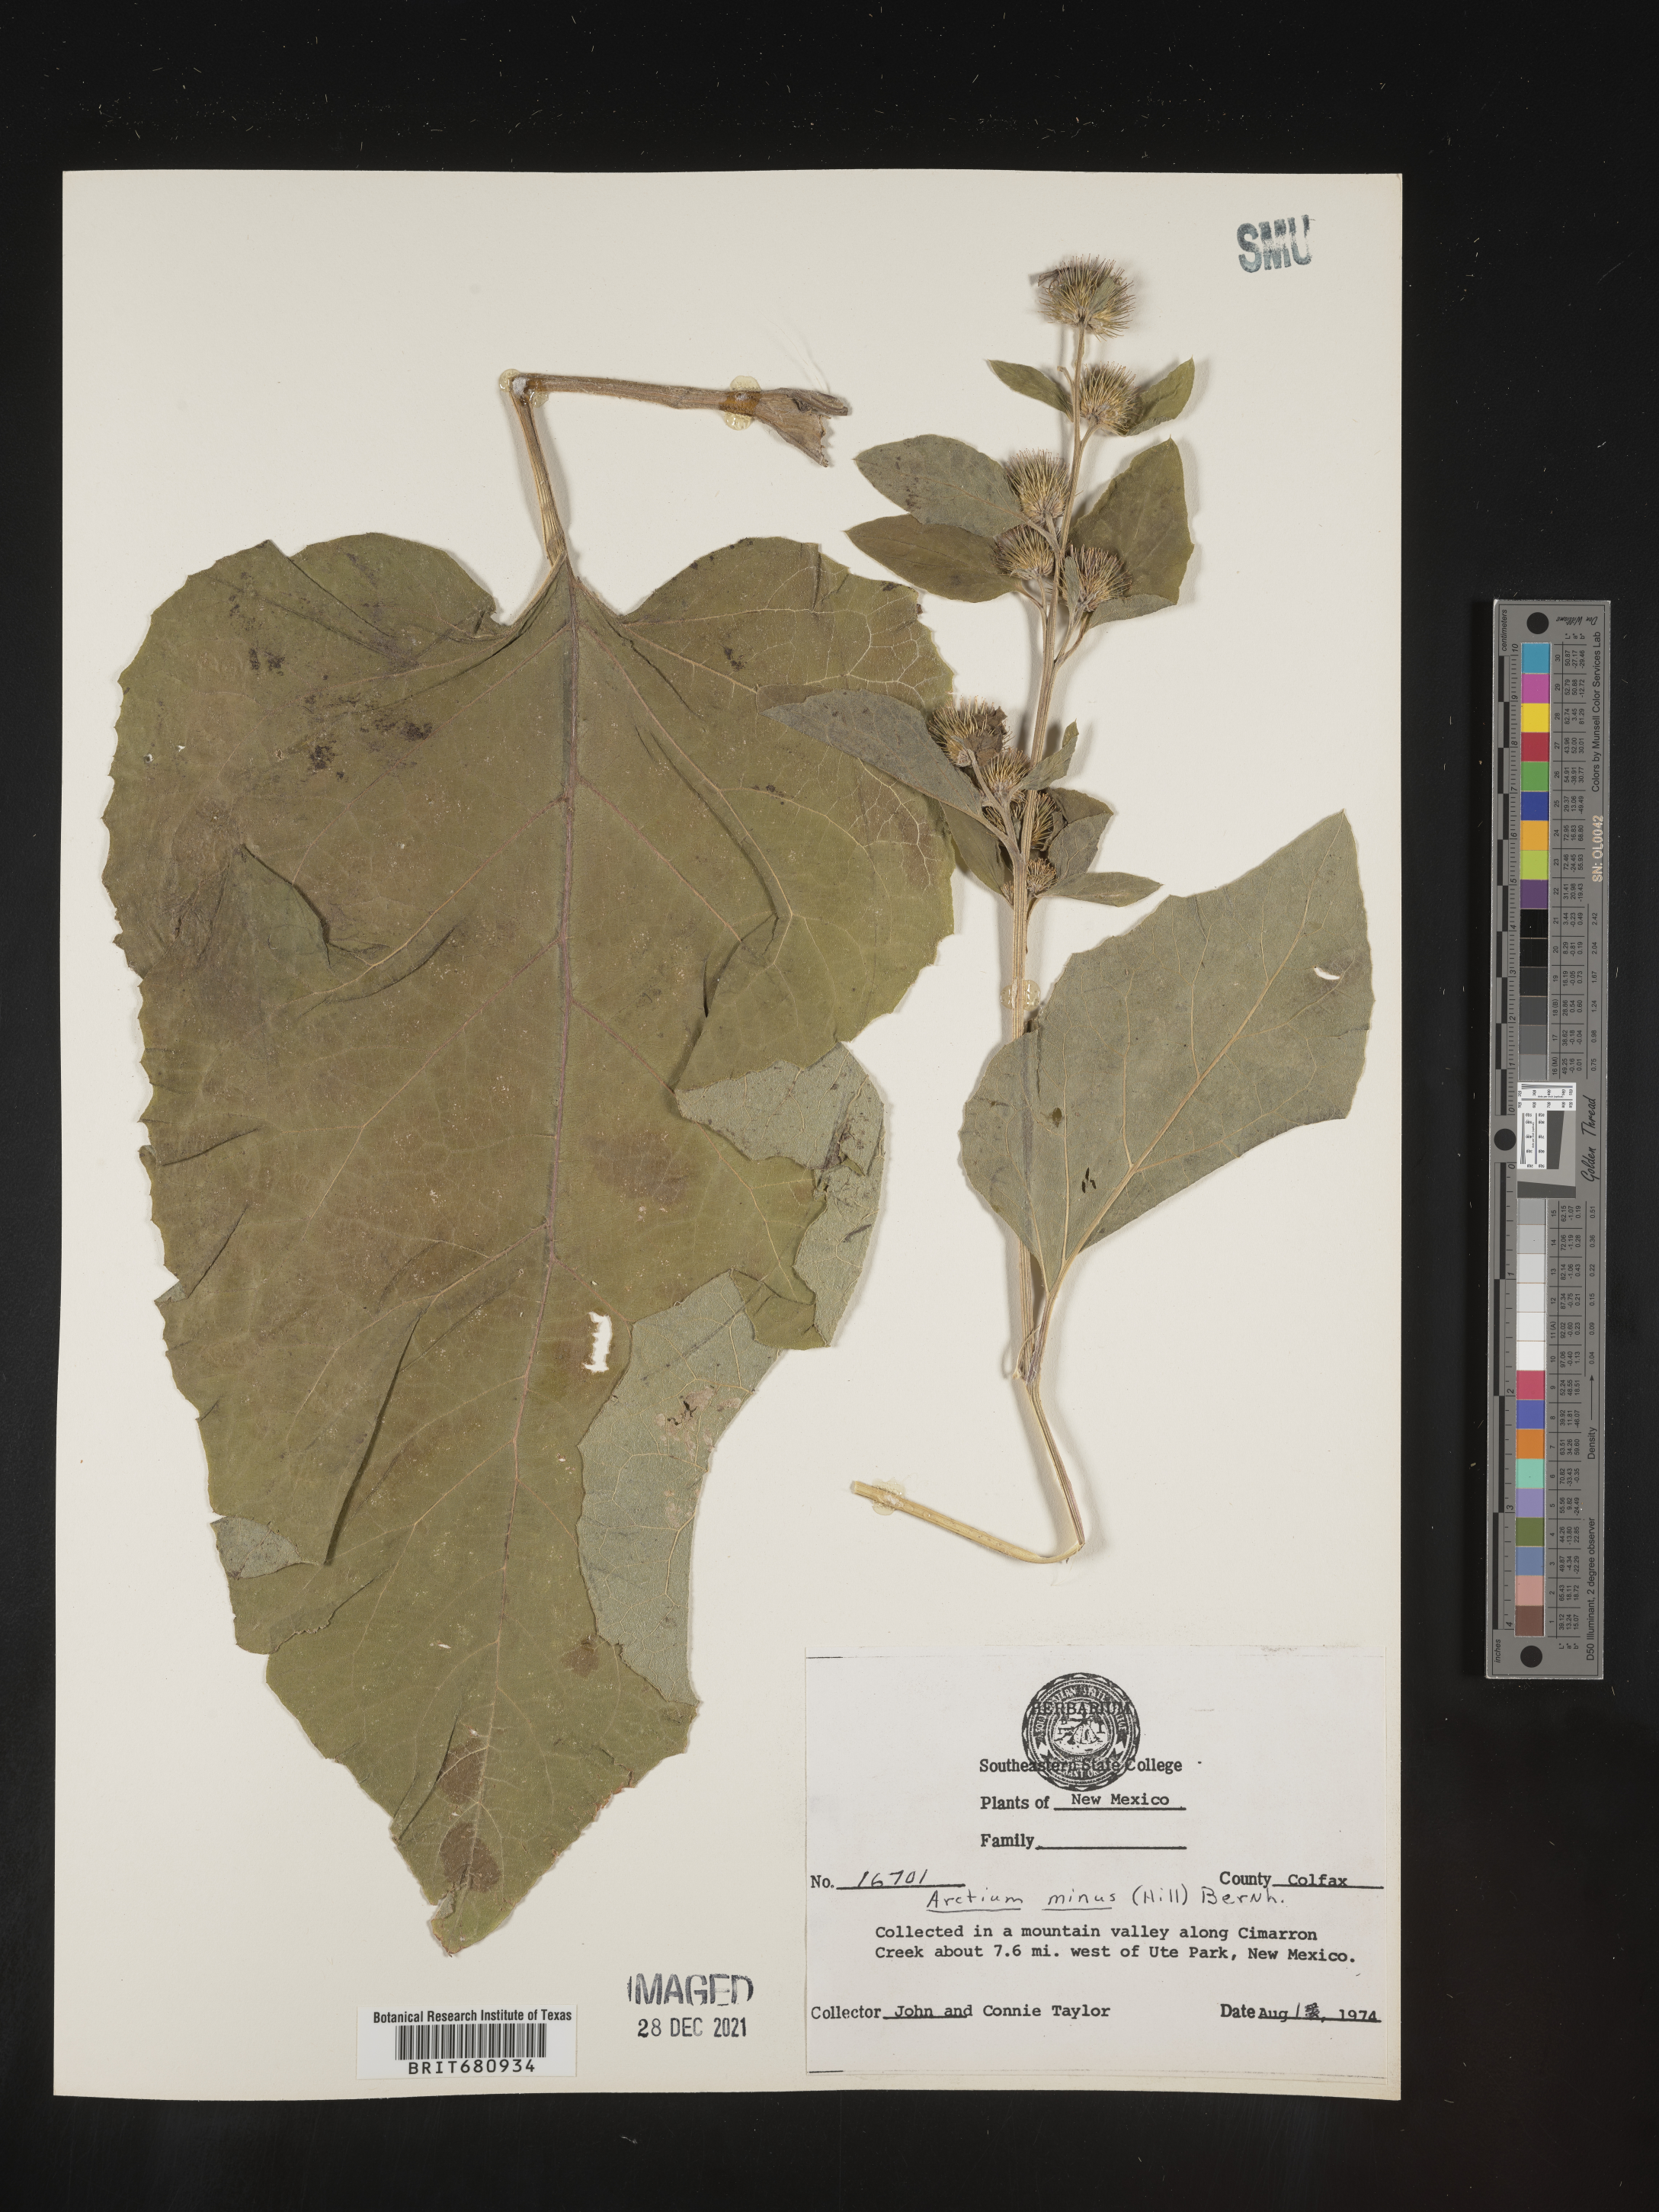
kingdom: Plantae
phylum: Tracheophyta
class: Magnoliopsida
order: Asterales
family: Asteraceae
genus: Arctium
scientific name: Arctium minus
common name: Lesser burdock
